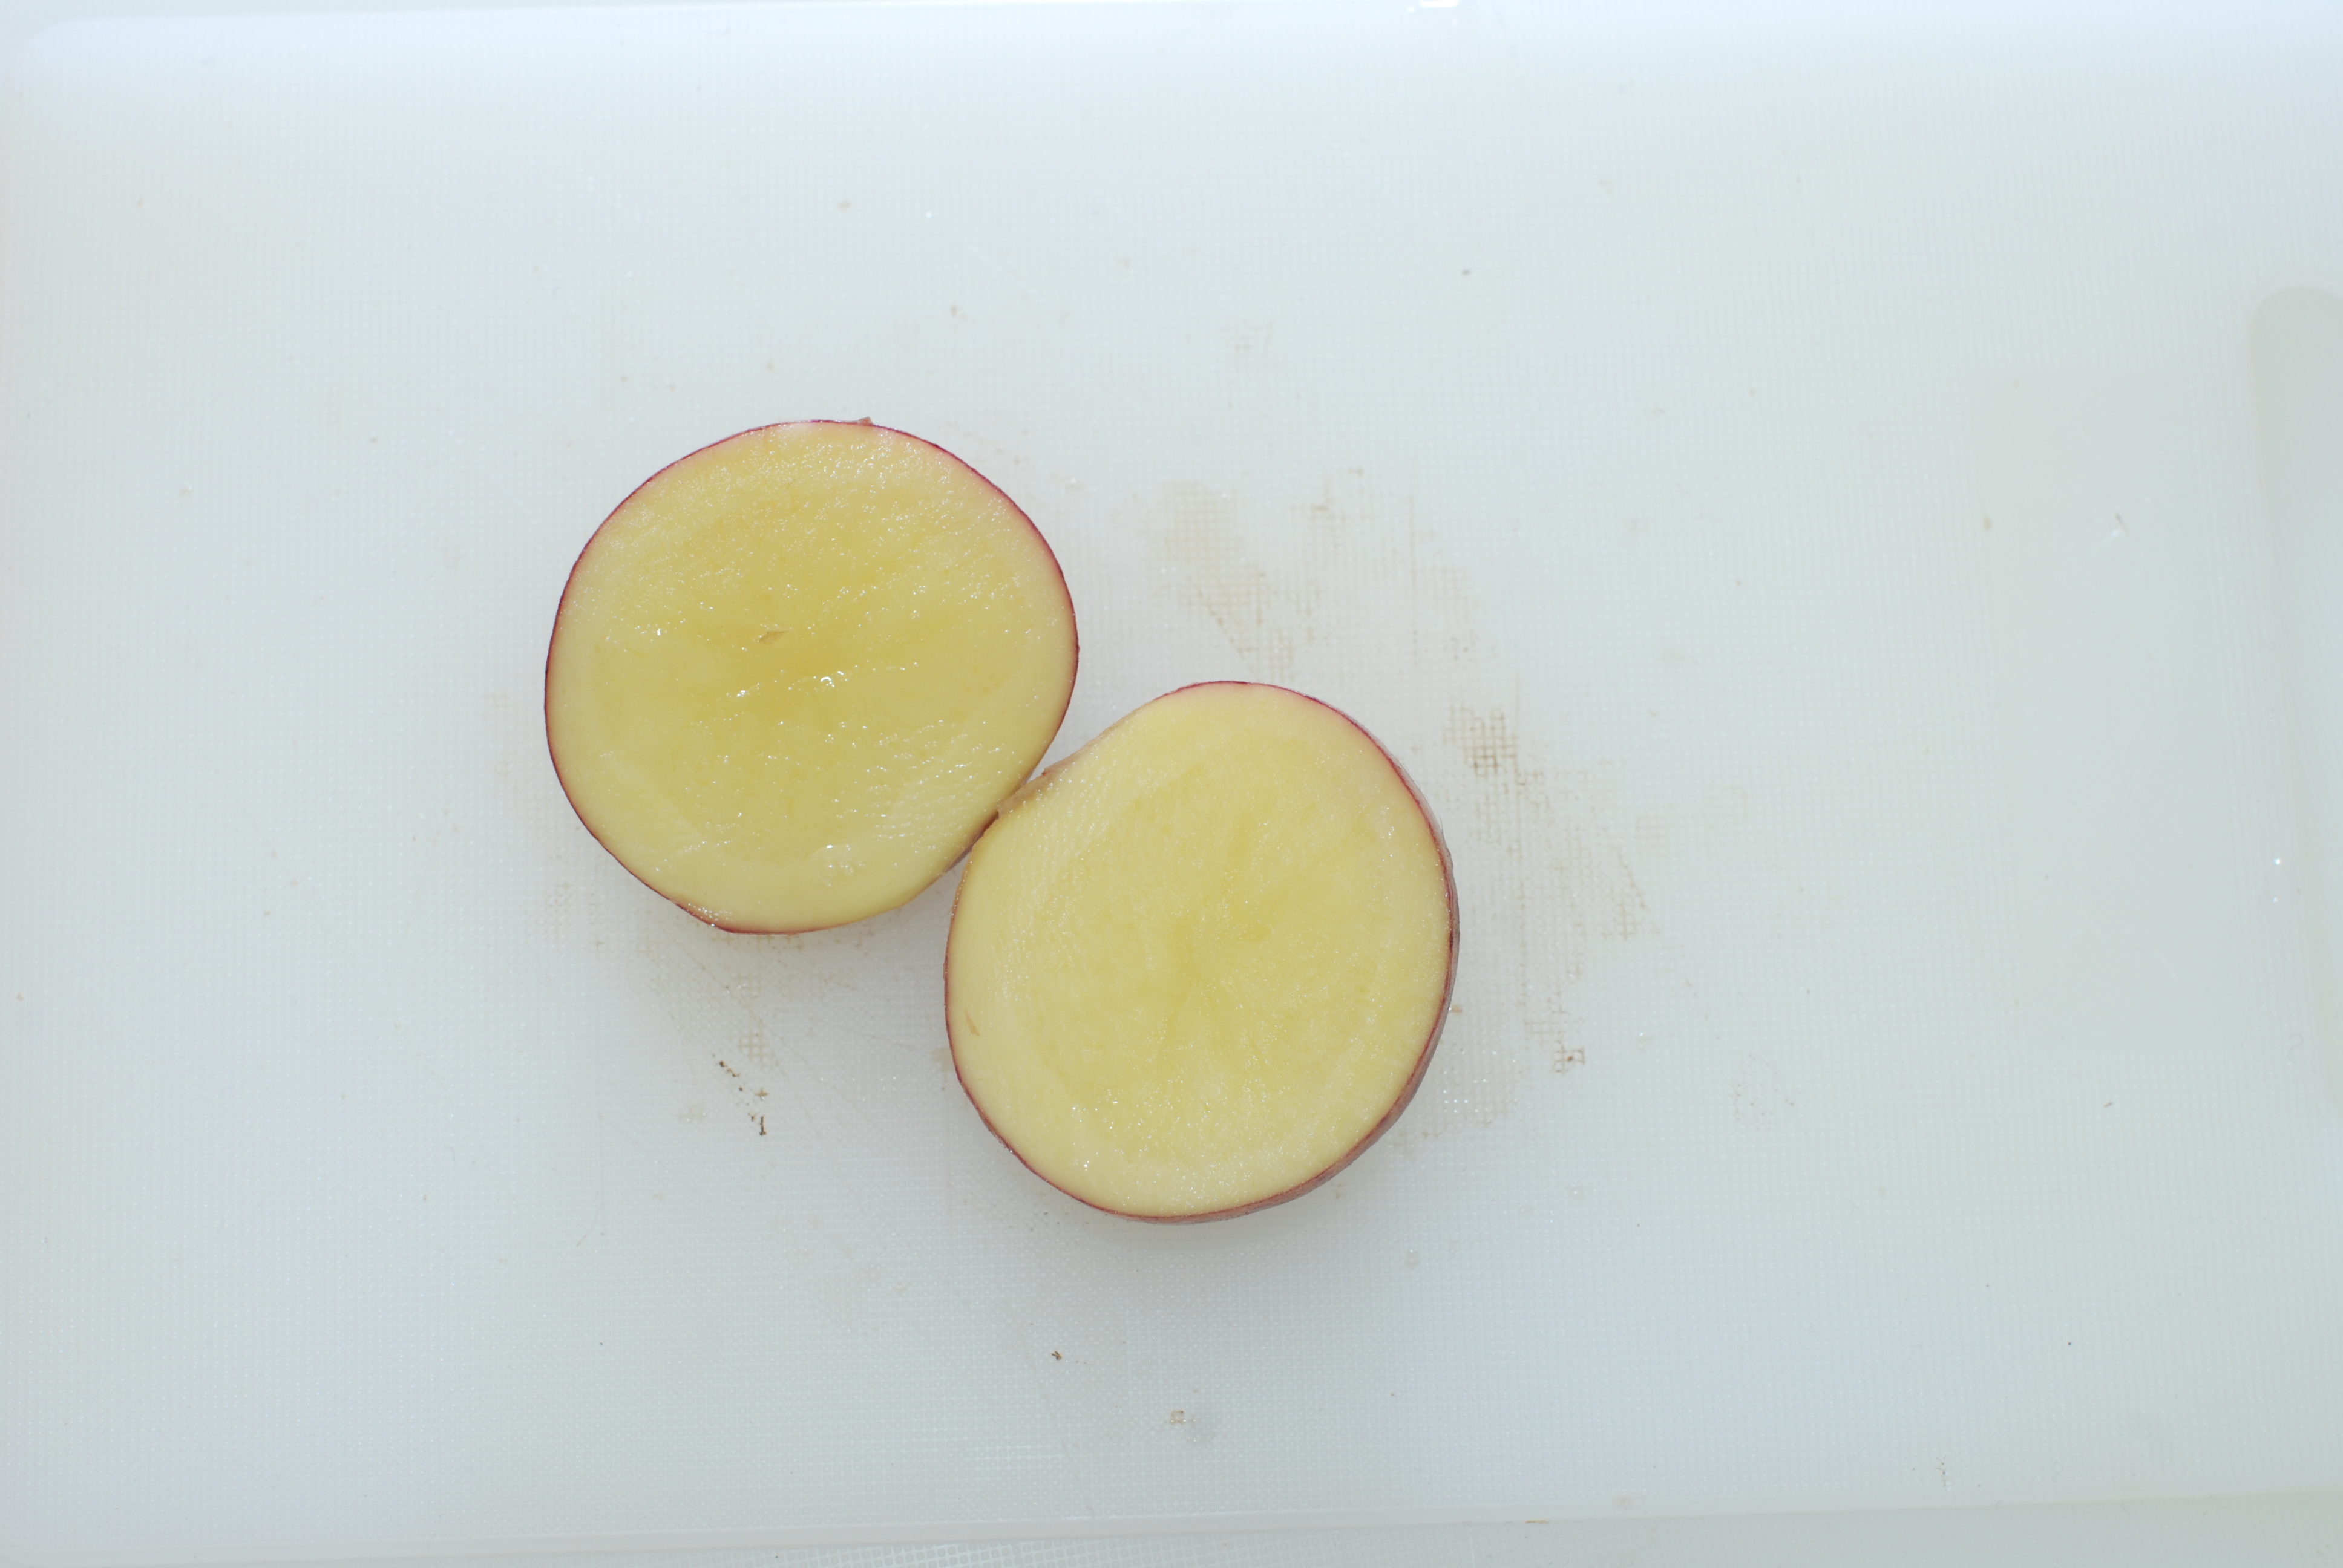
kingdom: Plantae
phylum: Tracheophyta
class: Magnoliopsida
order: Solanales
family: Solanaceae
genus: Solanum
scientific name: Solanum tuberosum
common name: Potato
